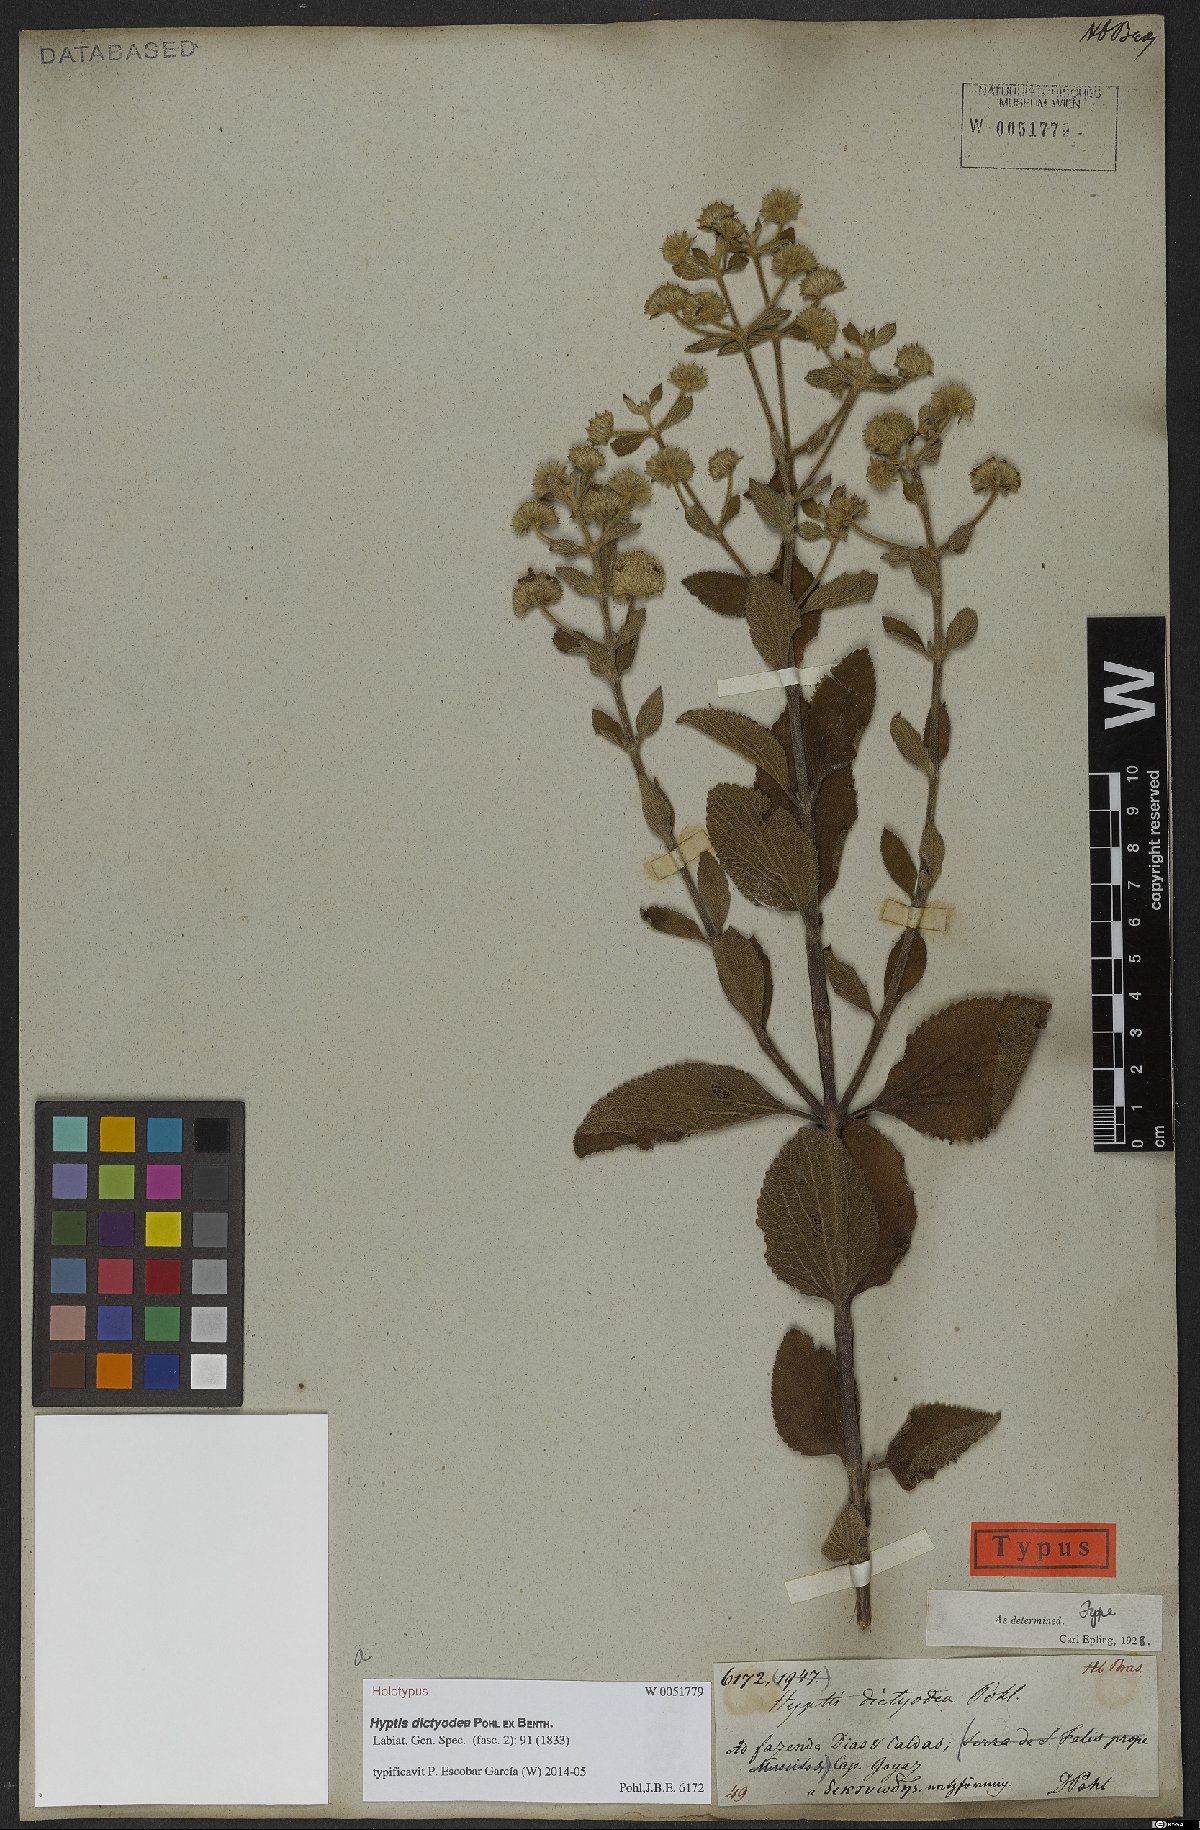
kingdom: Plantae
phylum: Tracheophyta
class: Magnoliopsida
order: Lamiales
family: Lamiaceae
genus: Hyptis
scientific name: Hyptis dictyodea
